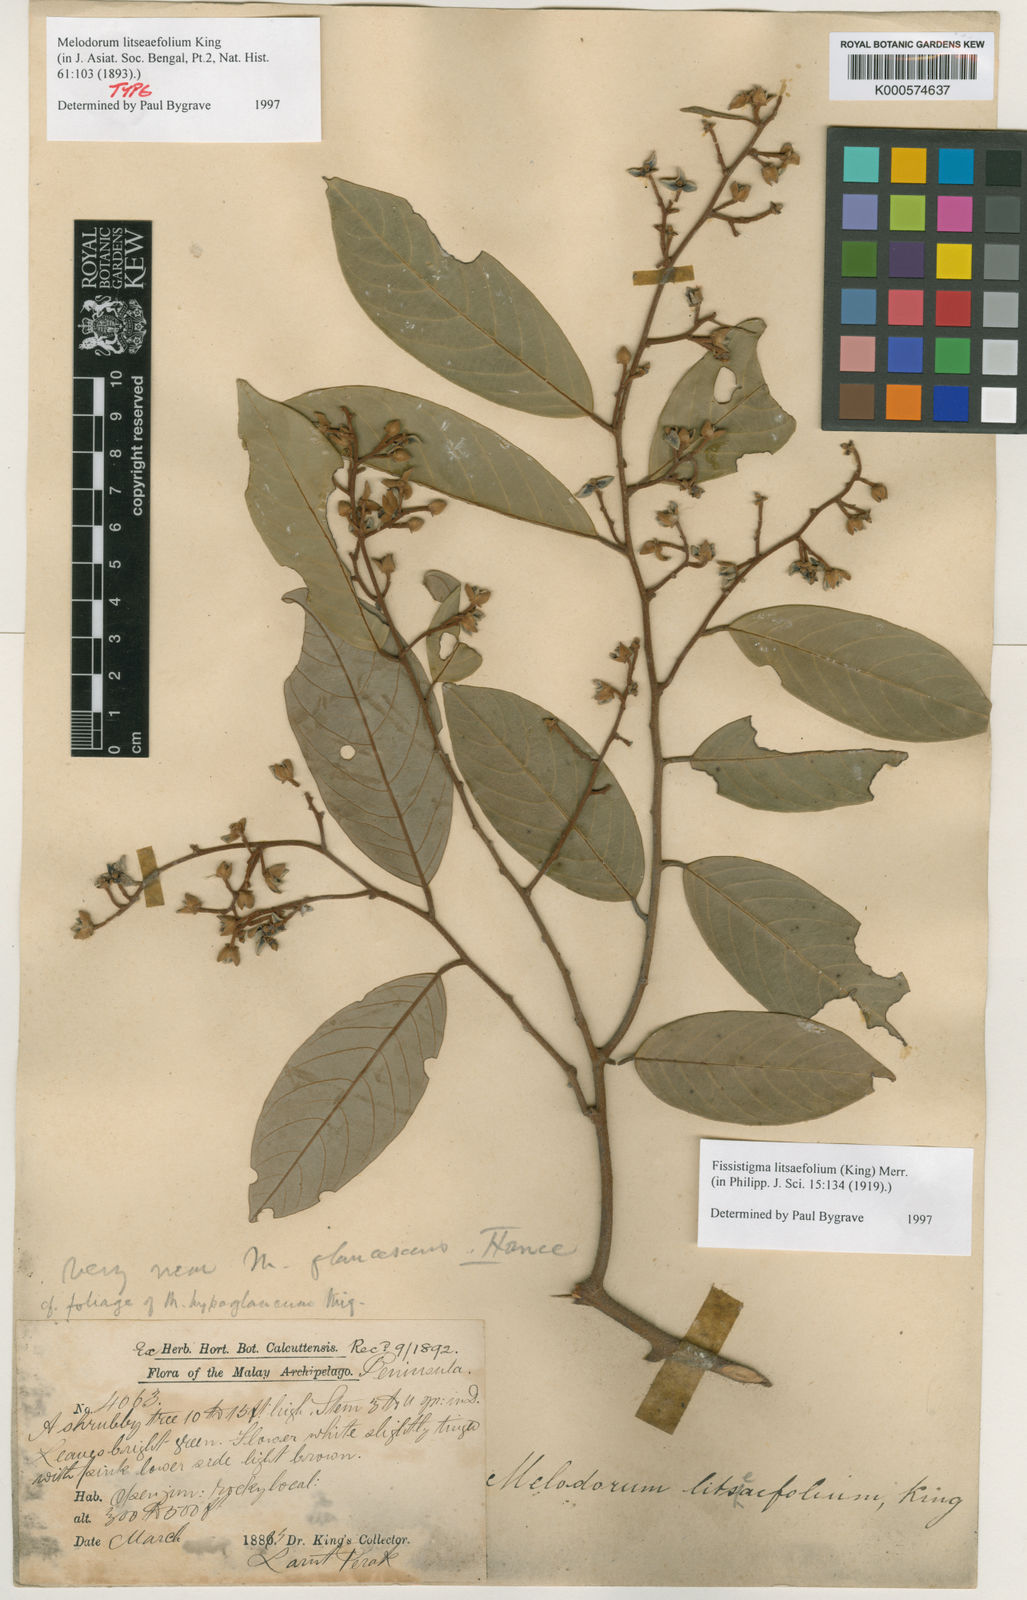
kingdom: Plantae
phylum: Tracheophyta
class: Magnoliopsida
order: Magnoliales
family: Annonaceae
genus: Fissistigma
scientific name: Fissistigma
